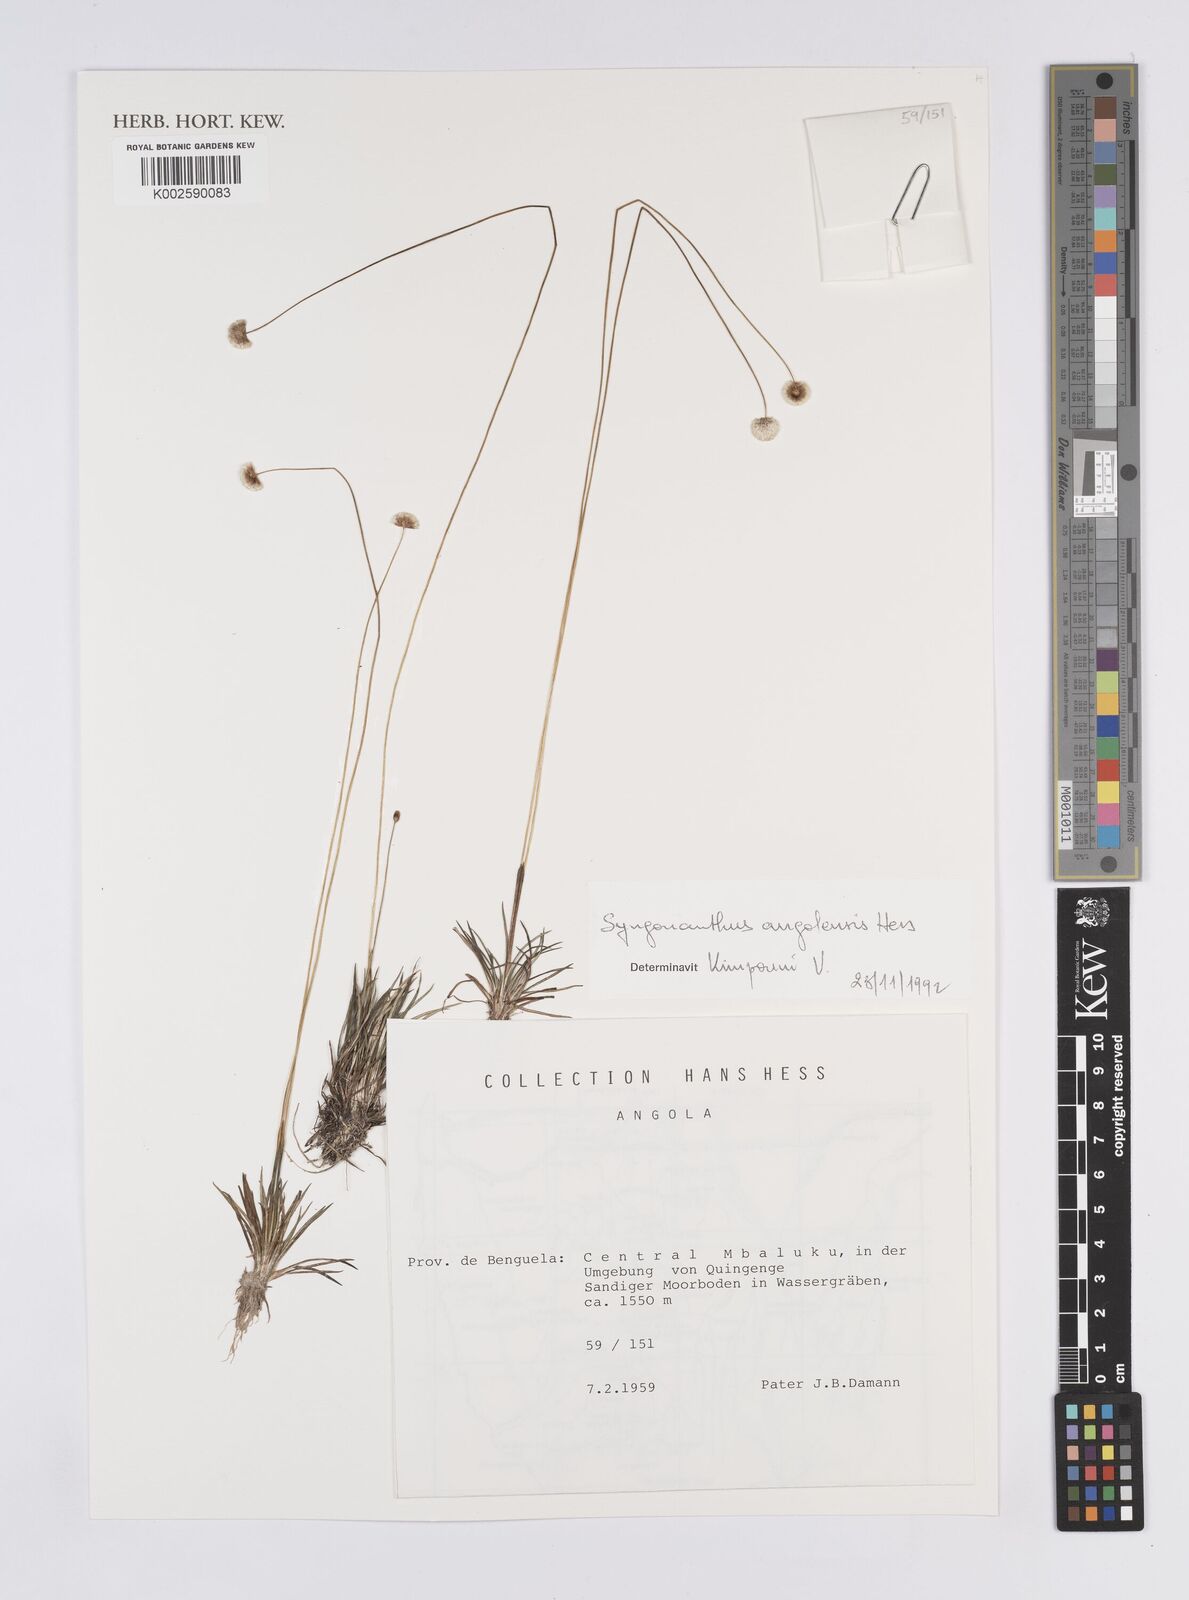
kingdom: Plantae
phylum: Tracheophyta
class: Liliopsida
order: Poales
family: Eriocaulaceae
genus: Syngonanthus
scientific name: Syngonanthus angolensis
